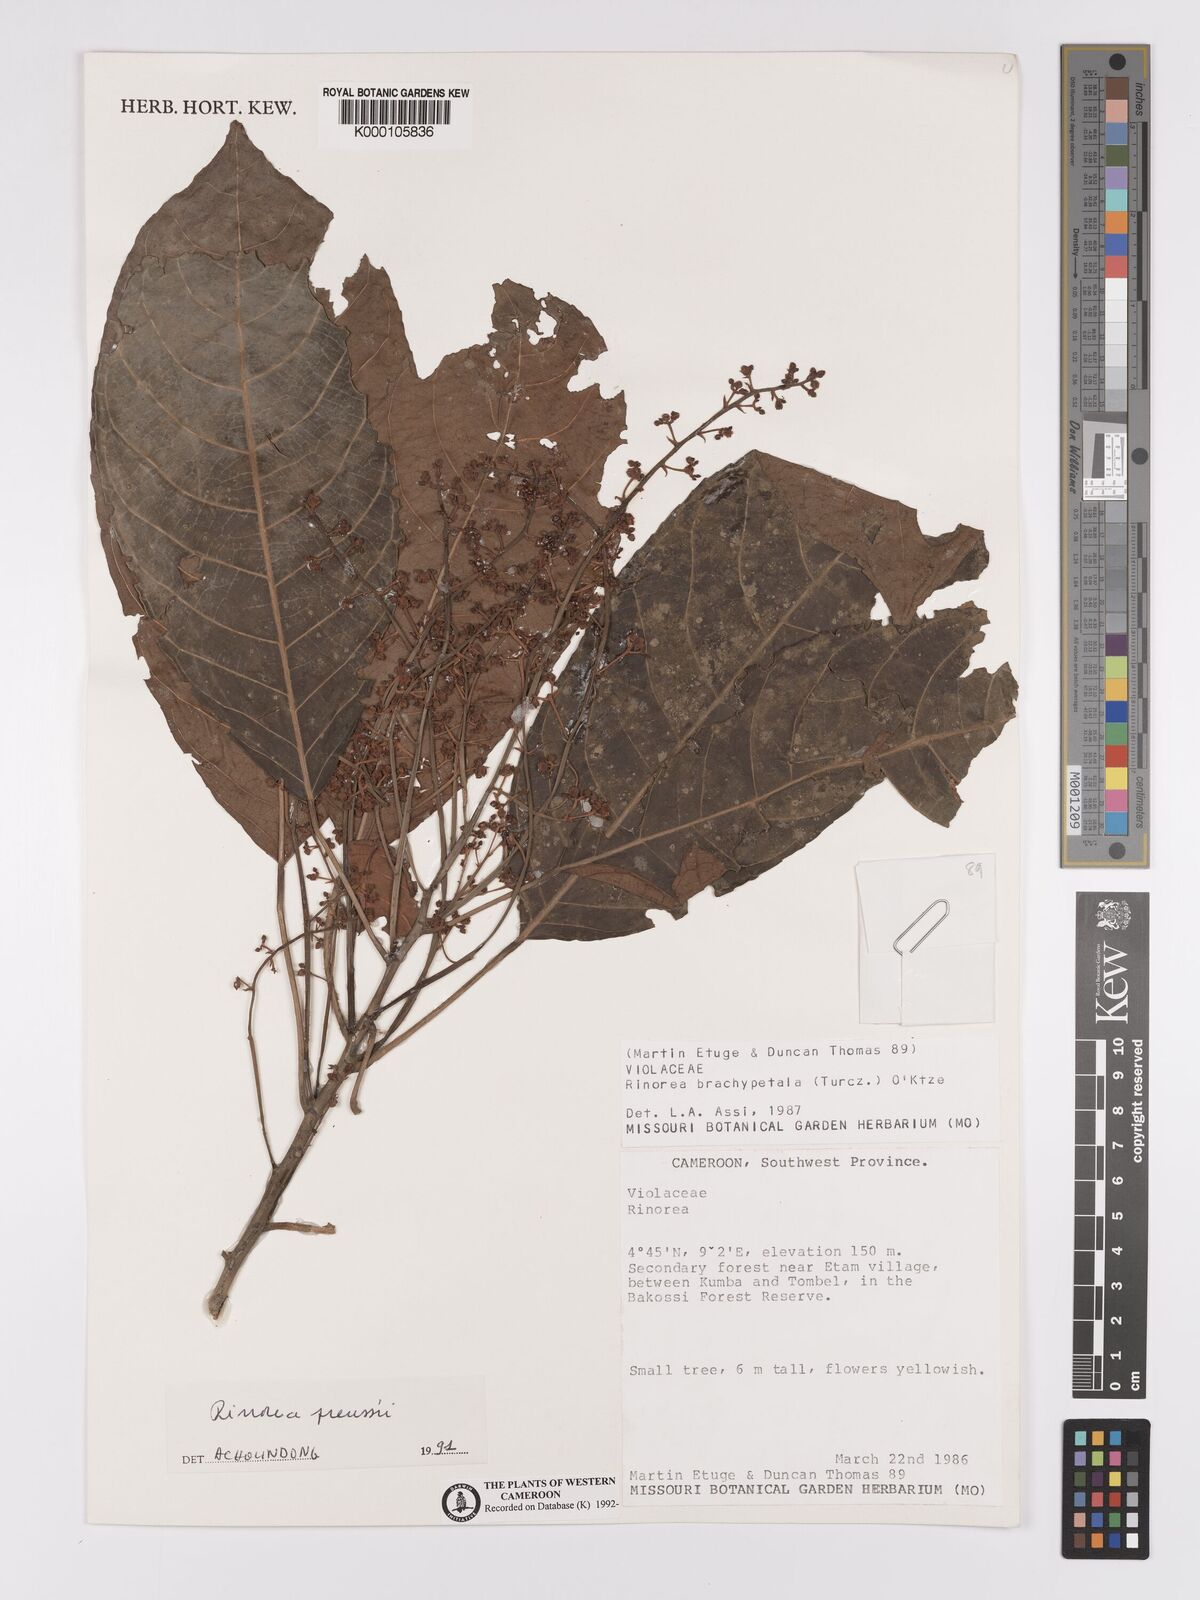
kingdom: Plantae
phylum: Tracheophyta
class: Magnoliopsida
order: Malpighiales
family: Violaceae
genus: Rinorea
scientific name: Rinorea preussii
